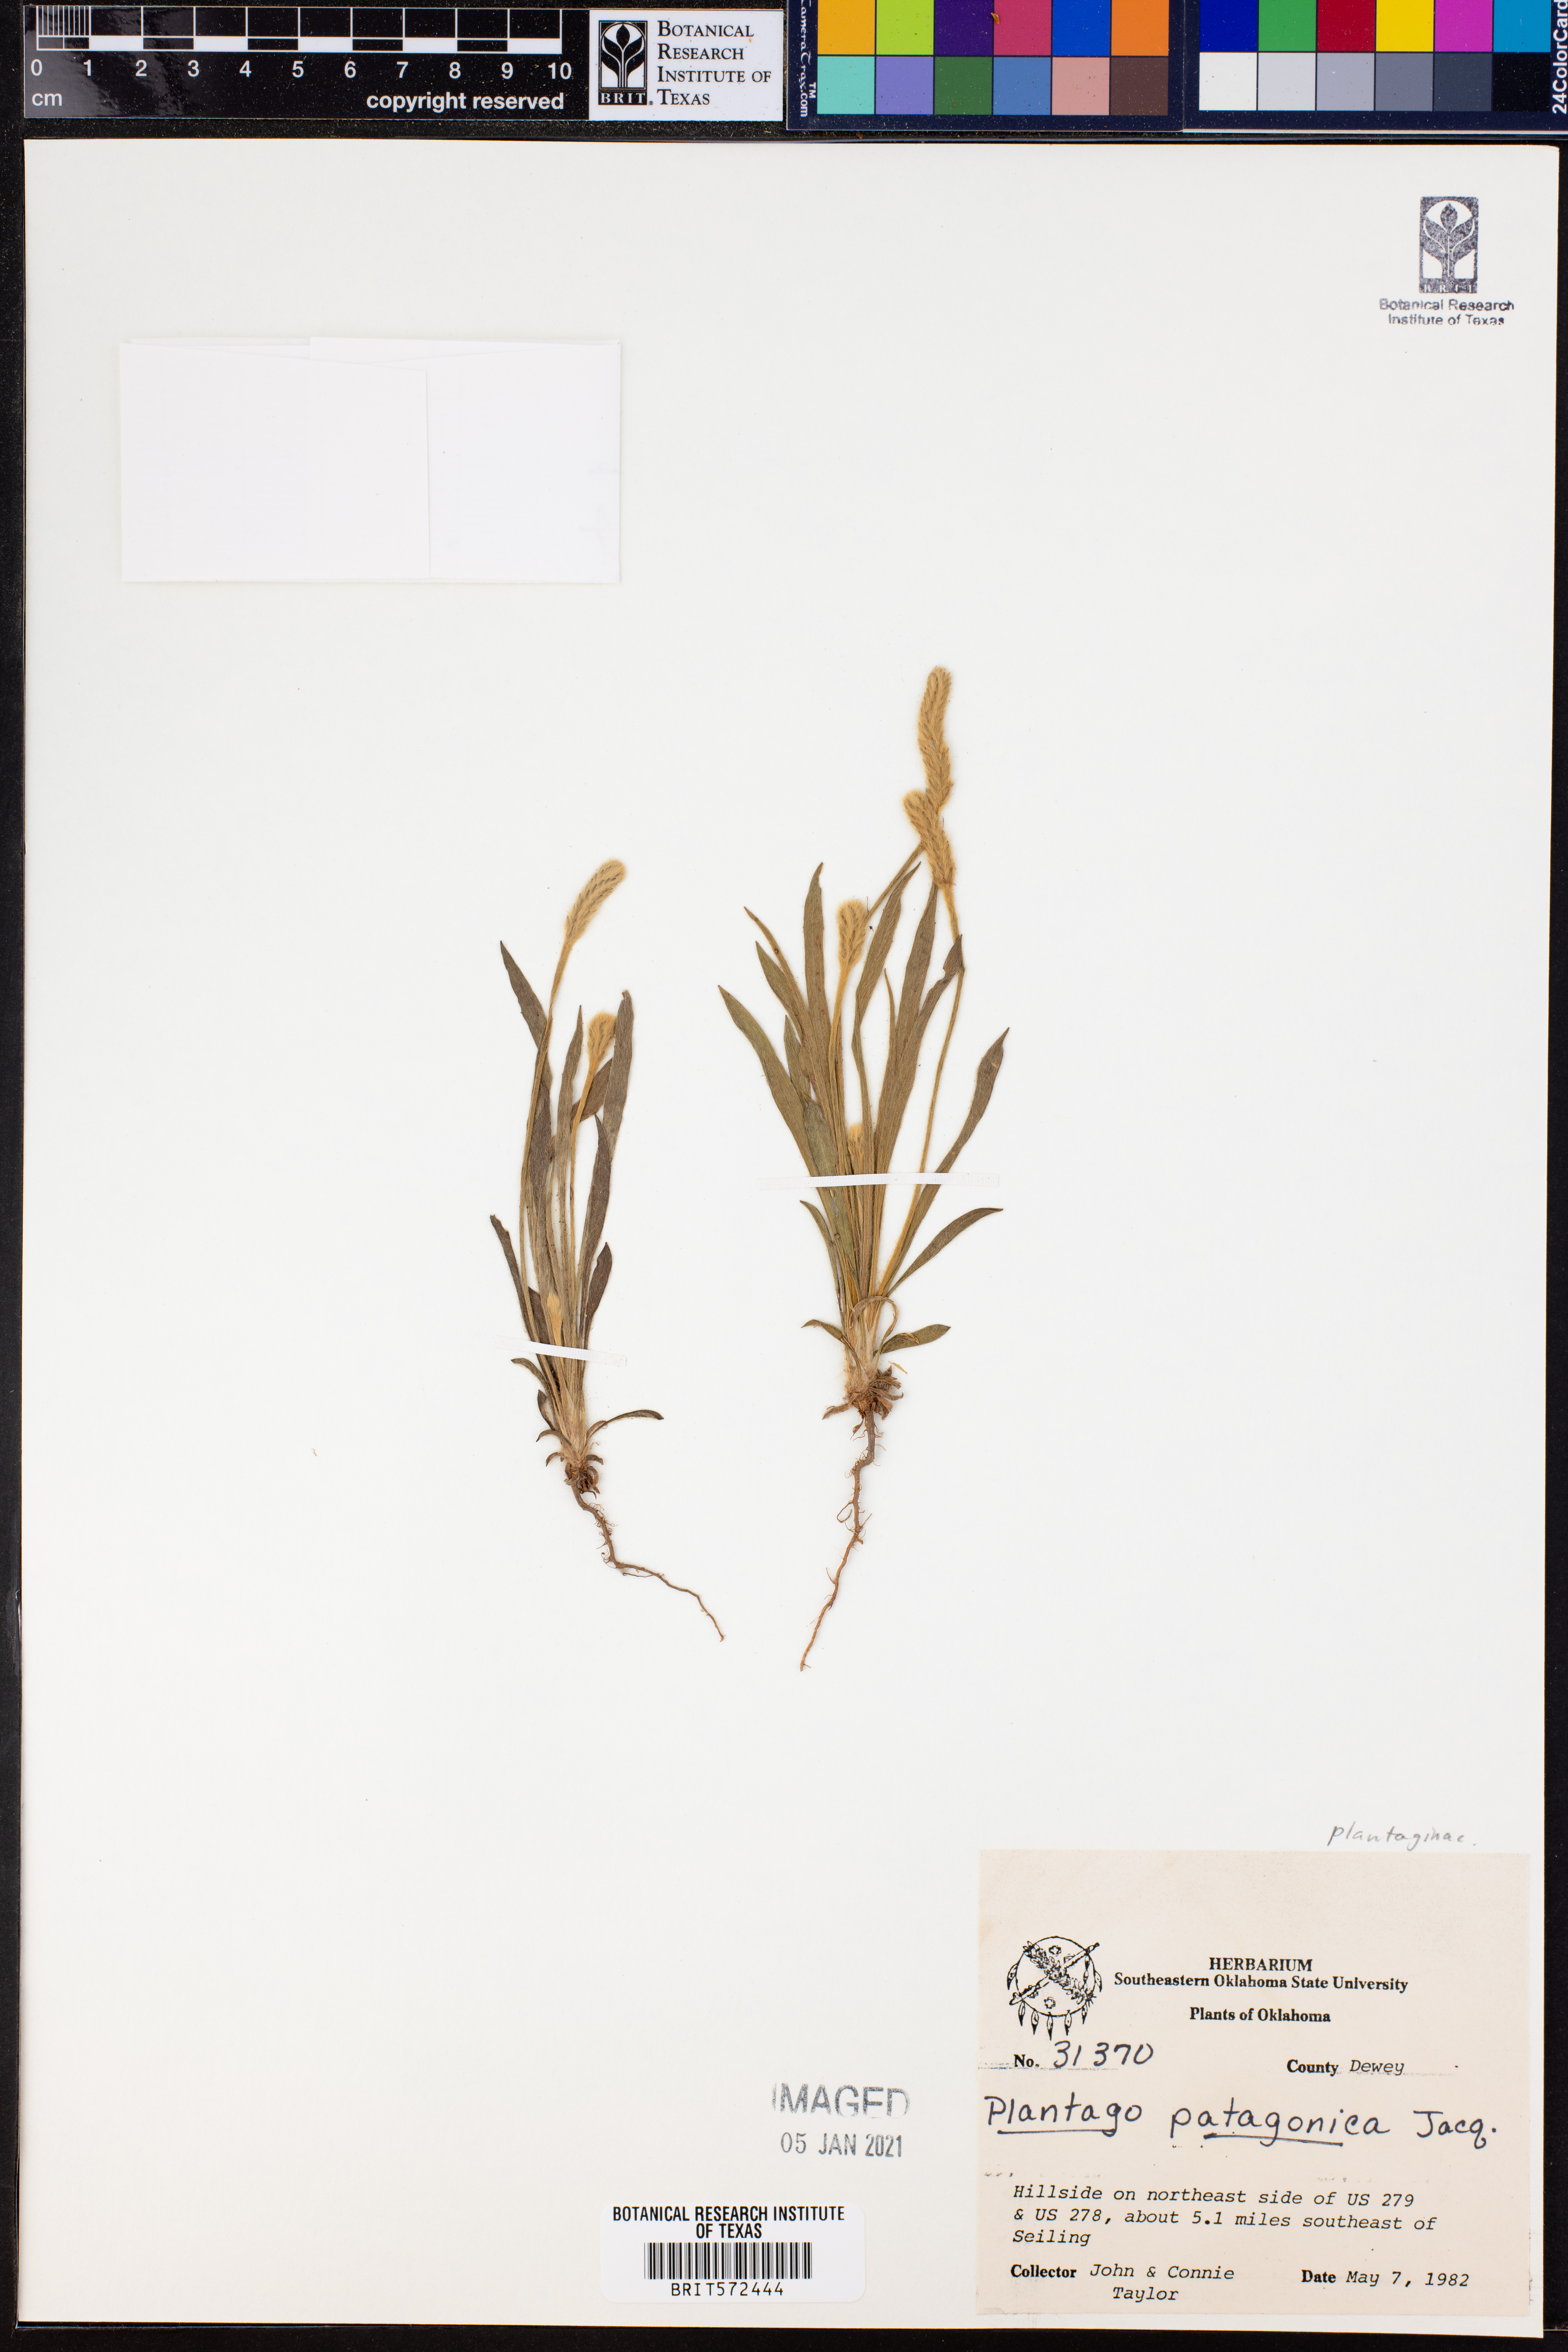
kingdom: Plantae
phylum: Tracheophyta
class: Magnoliopsida
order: Lamiales
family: Plantaginaceae
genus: Plantago
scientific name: Plantago patagonica
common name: Patagonia indian-wheat
